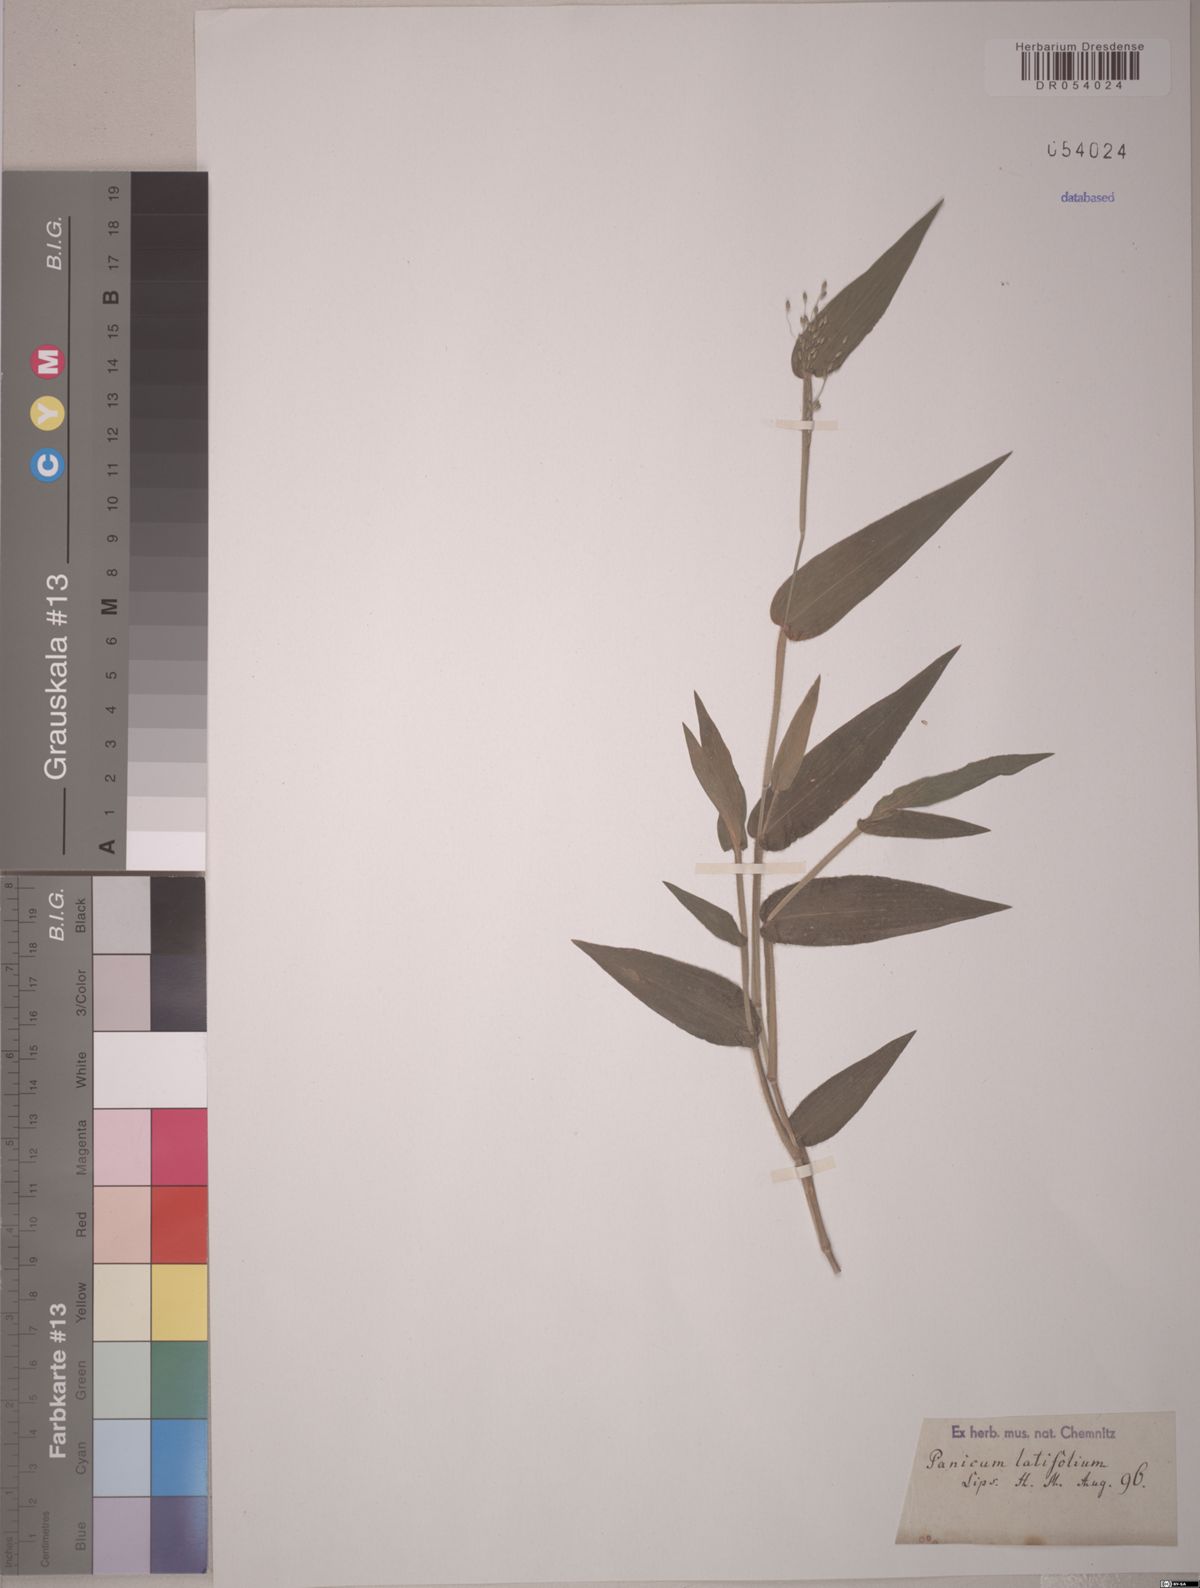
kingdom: Plantae
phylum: Tracheophyta
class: Liliopsida
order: Poales
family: Poaceae
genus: Dichanthelium
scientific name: Dichanthelium latifolium
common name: Broad-leaved panicgrass
